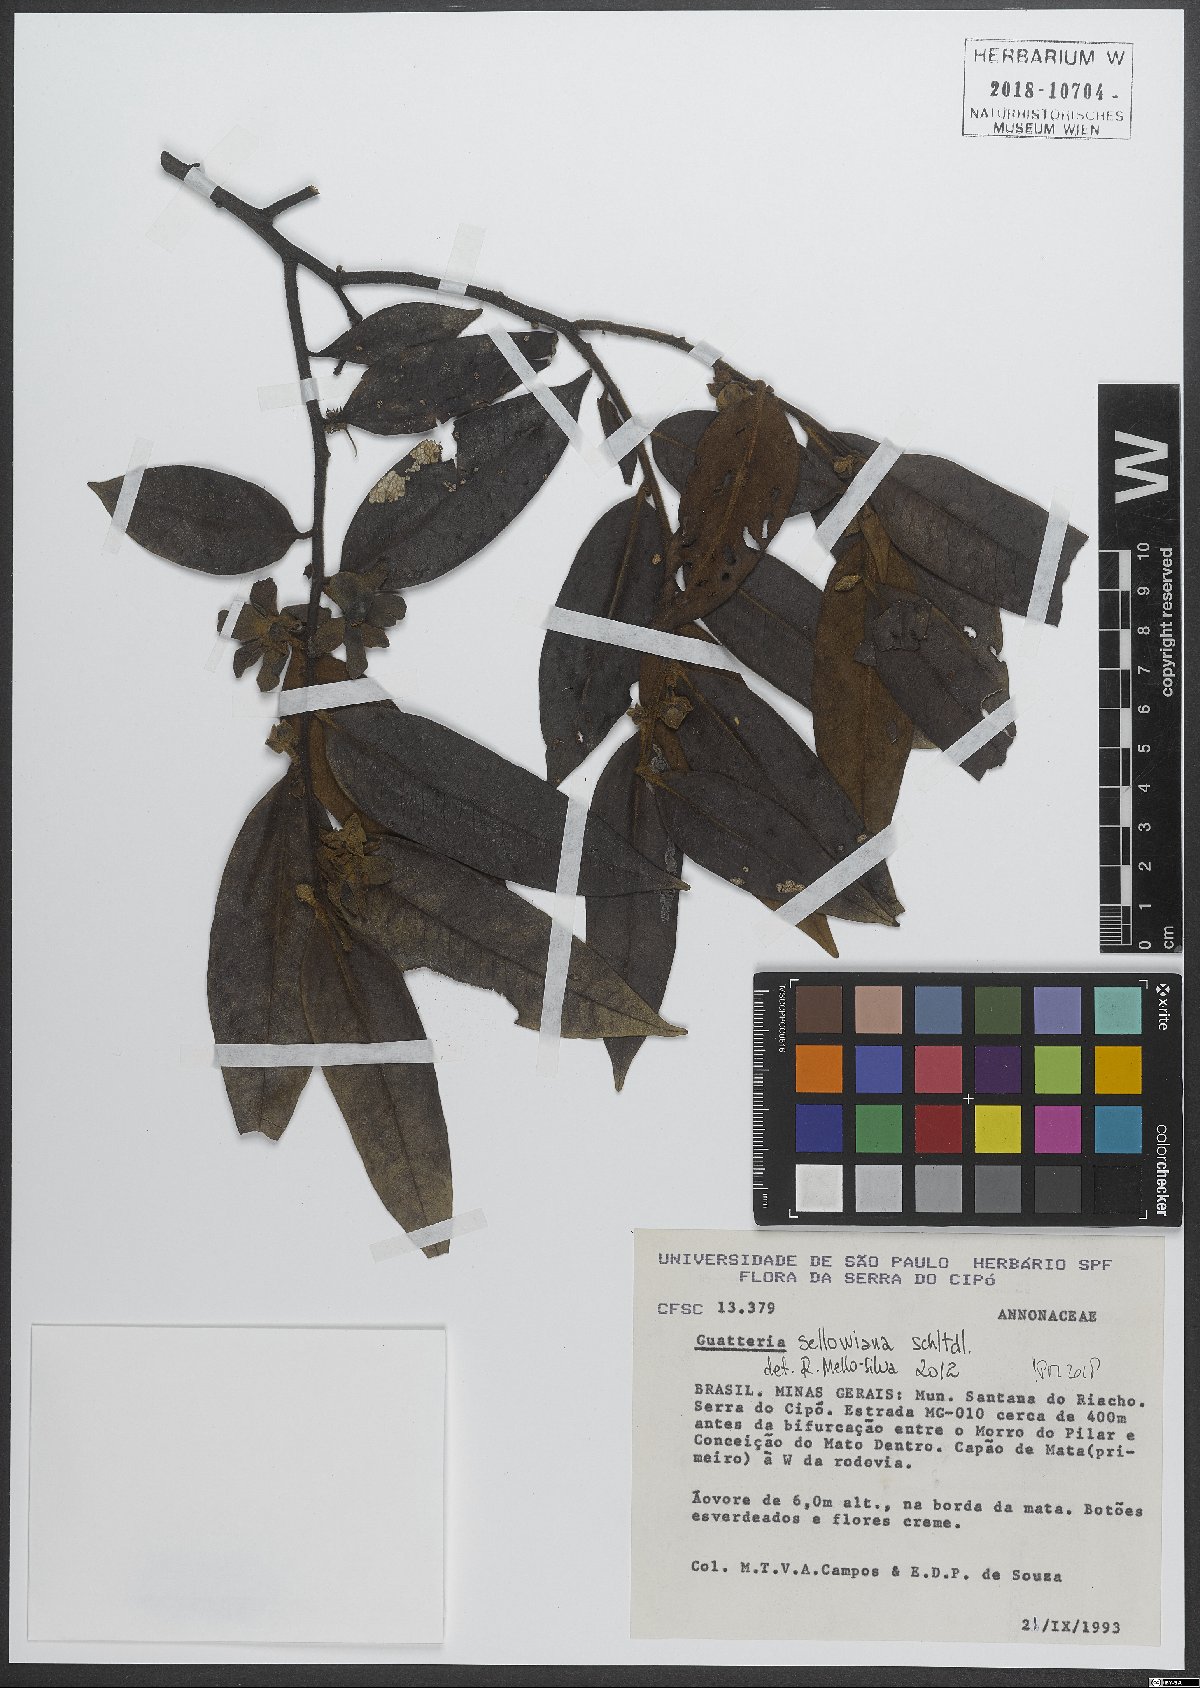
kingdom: Plantae
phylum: Tracheophyta
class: Magnoliopsida
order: Magnoliales
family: Annonaceae
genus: Guatteria
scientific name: Guatteria sellowiana
